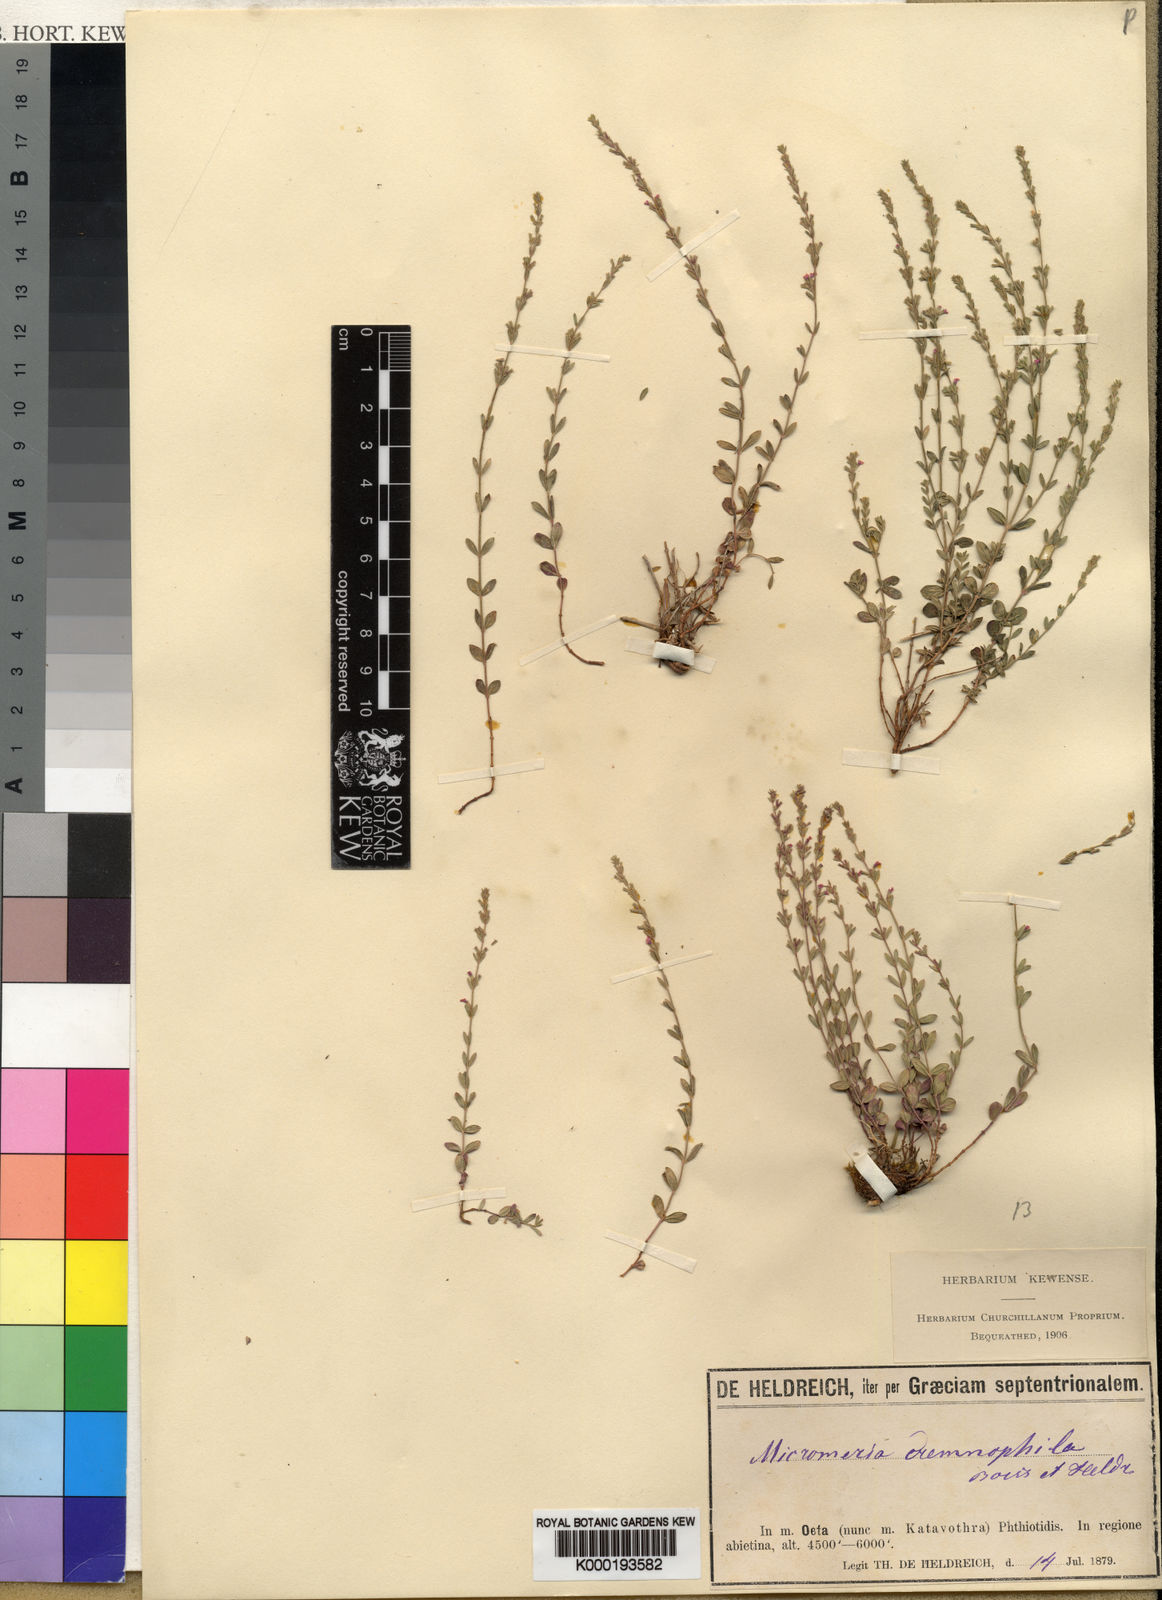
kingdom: Plantae
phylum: Tracheophyta
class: Magnoliopsida
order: Lamiales
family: Lamiaceae
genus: Micromeria
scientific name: Micromeria cremnophila
